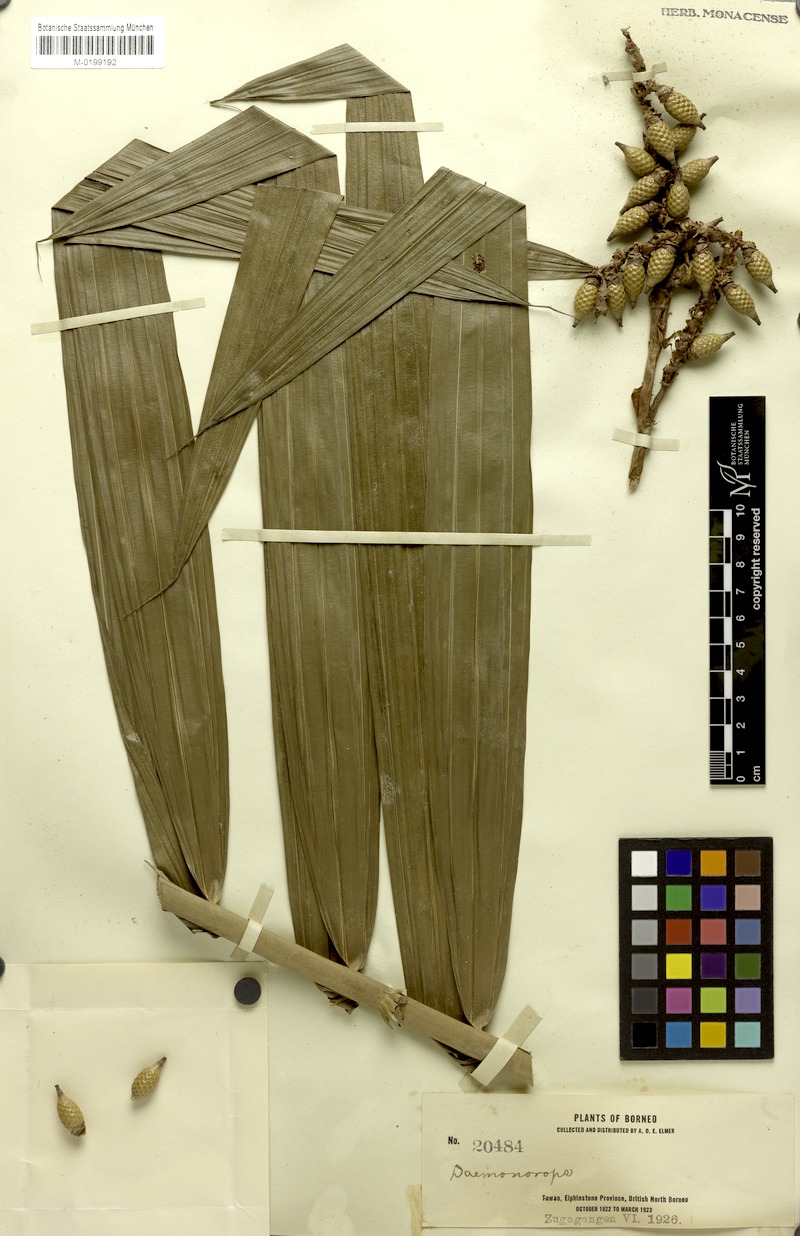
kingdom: Plantae
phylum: Tracheophyta
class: Liliopsida
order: Arecales
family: Arecaceae
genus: Calamus
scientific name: Calamus ruptilis
